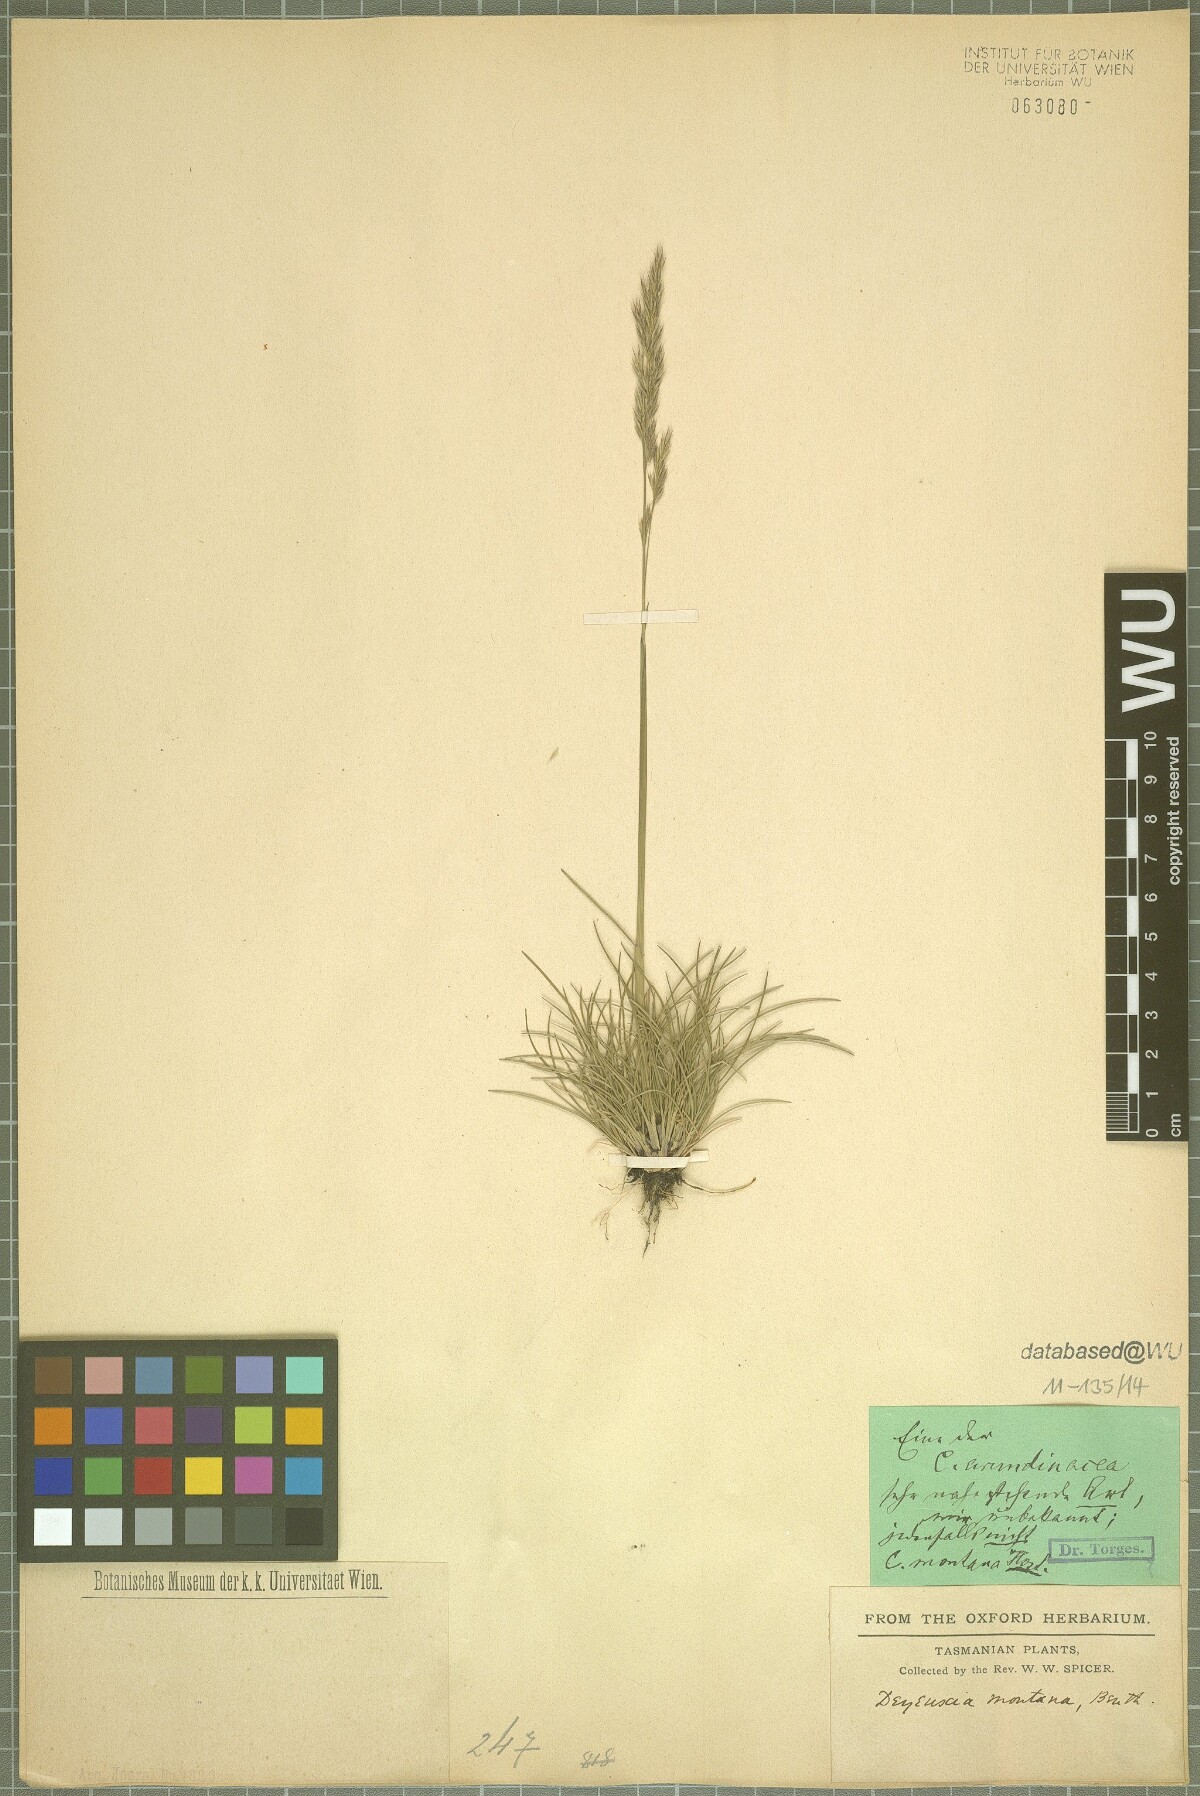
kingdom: Plantae
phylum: Tracheophyta
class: Liliopsida
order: Poales
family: Poaceae
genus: Calamagrostis
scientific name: Calamagrostis arundinacea
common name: Metskastik
